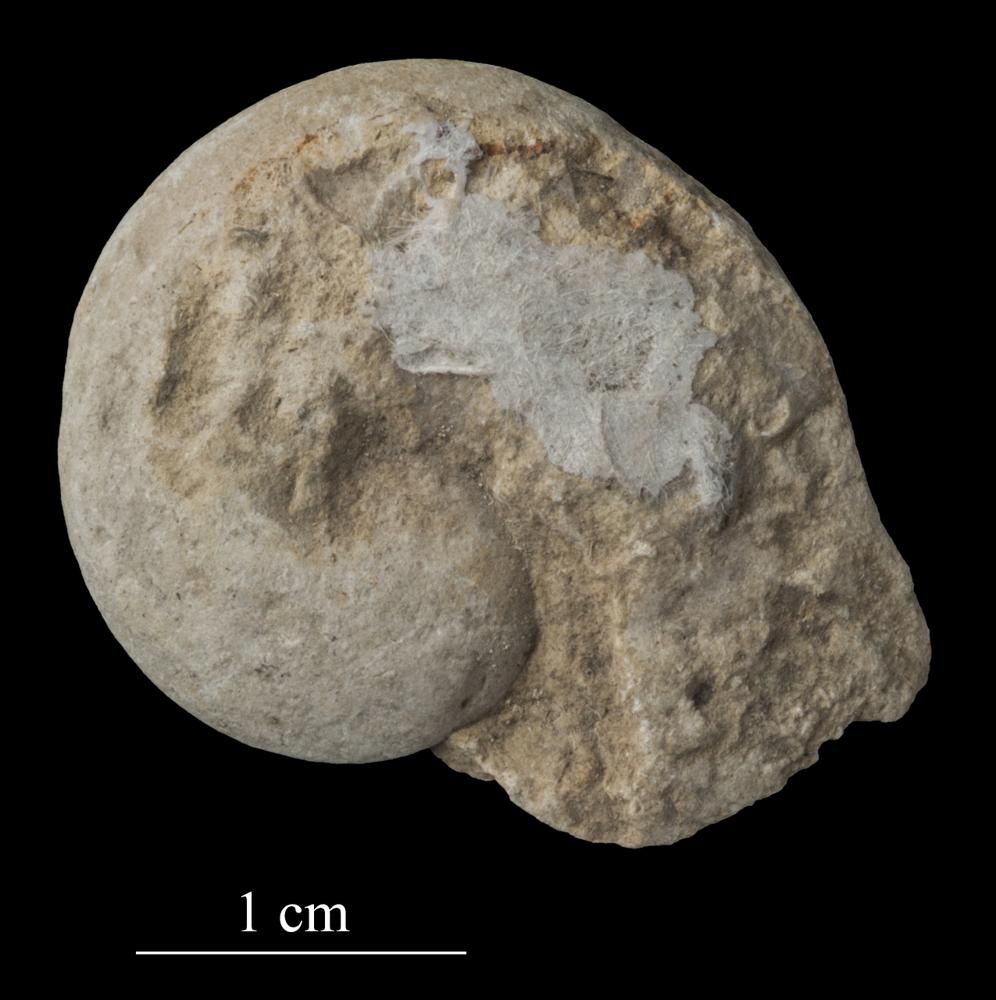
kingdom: Animalia
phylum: Mollusca
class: Gastropoda
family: Bellerophontidae
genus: Bellerophon
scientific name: Bellerophon
